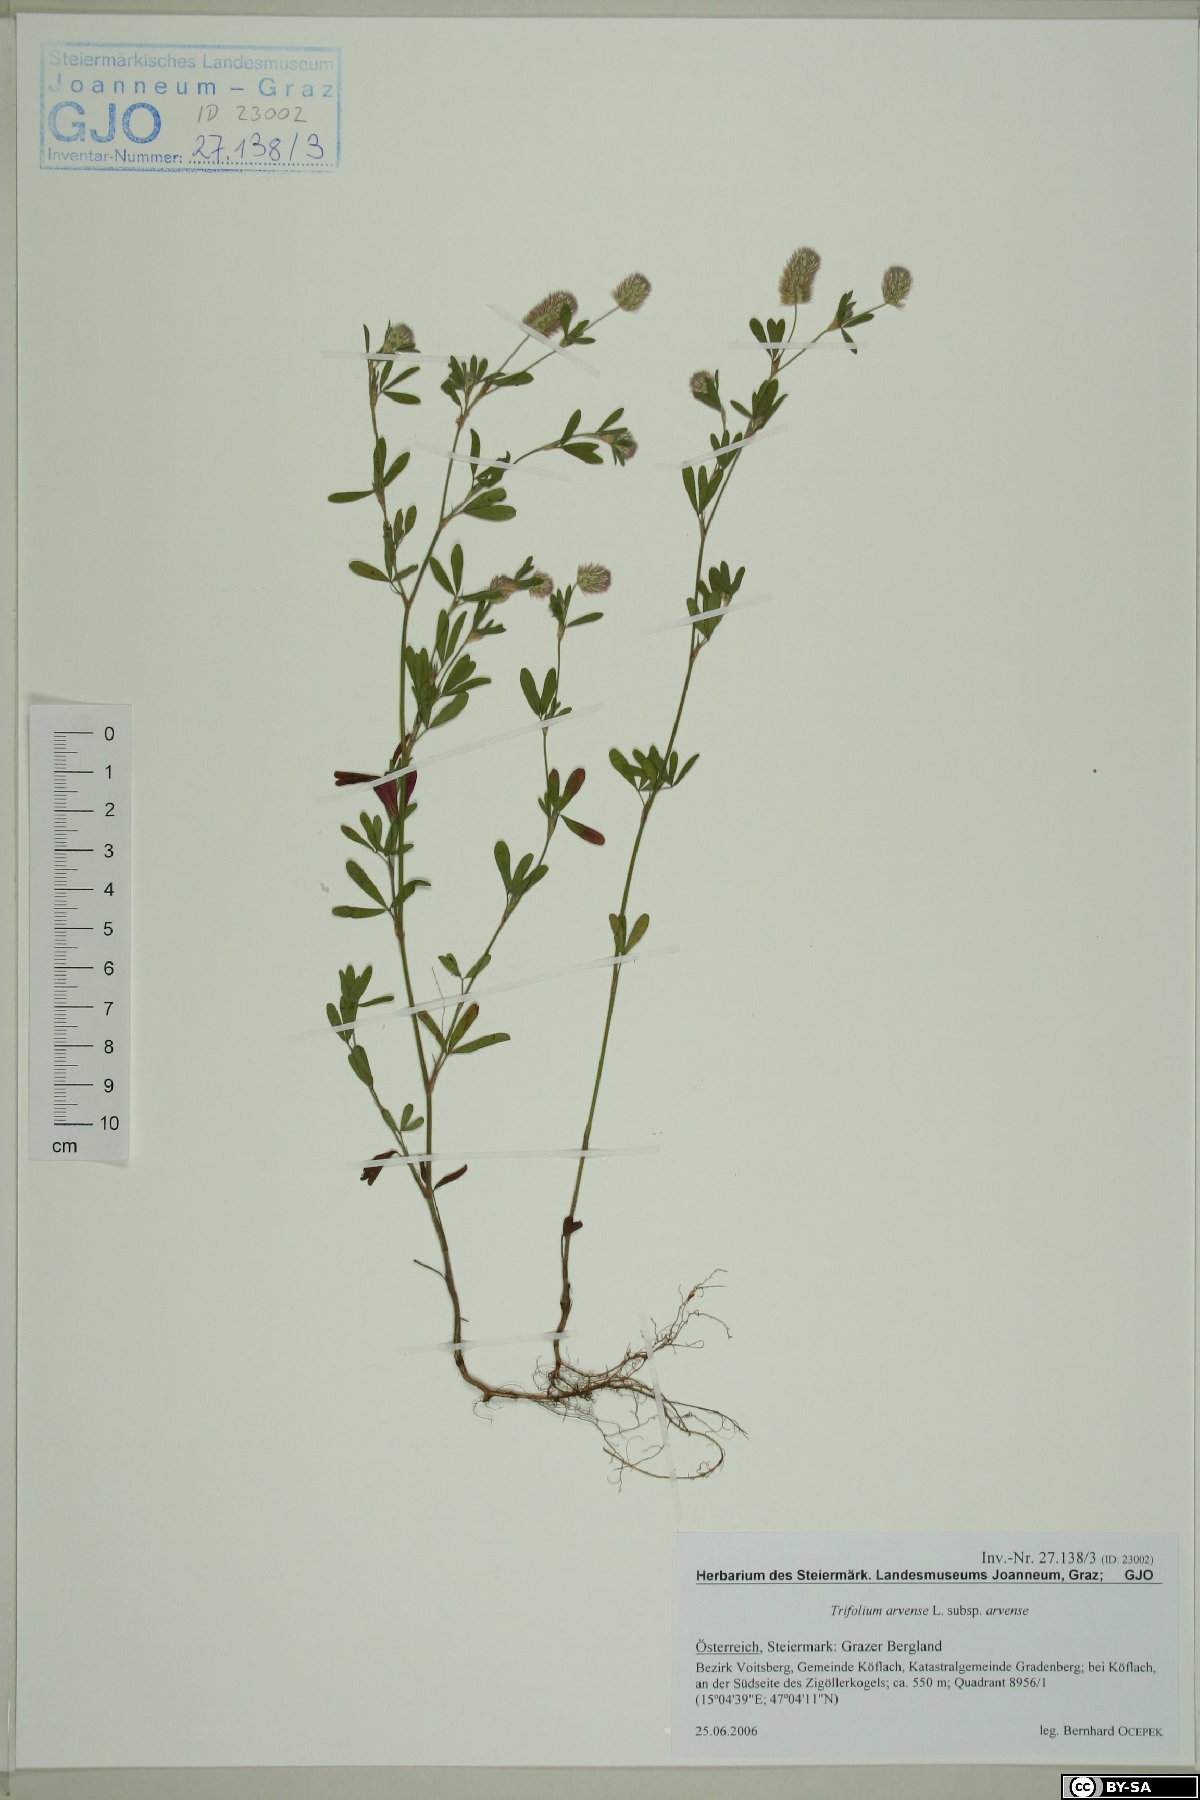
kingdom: Plantae
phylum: Tracheophyta
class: Magnoliopsida
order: Fabales
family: Fabaceae
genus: Trifolium
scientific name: Trifolium arvense
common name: Hare's-foot clover
